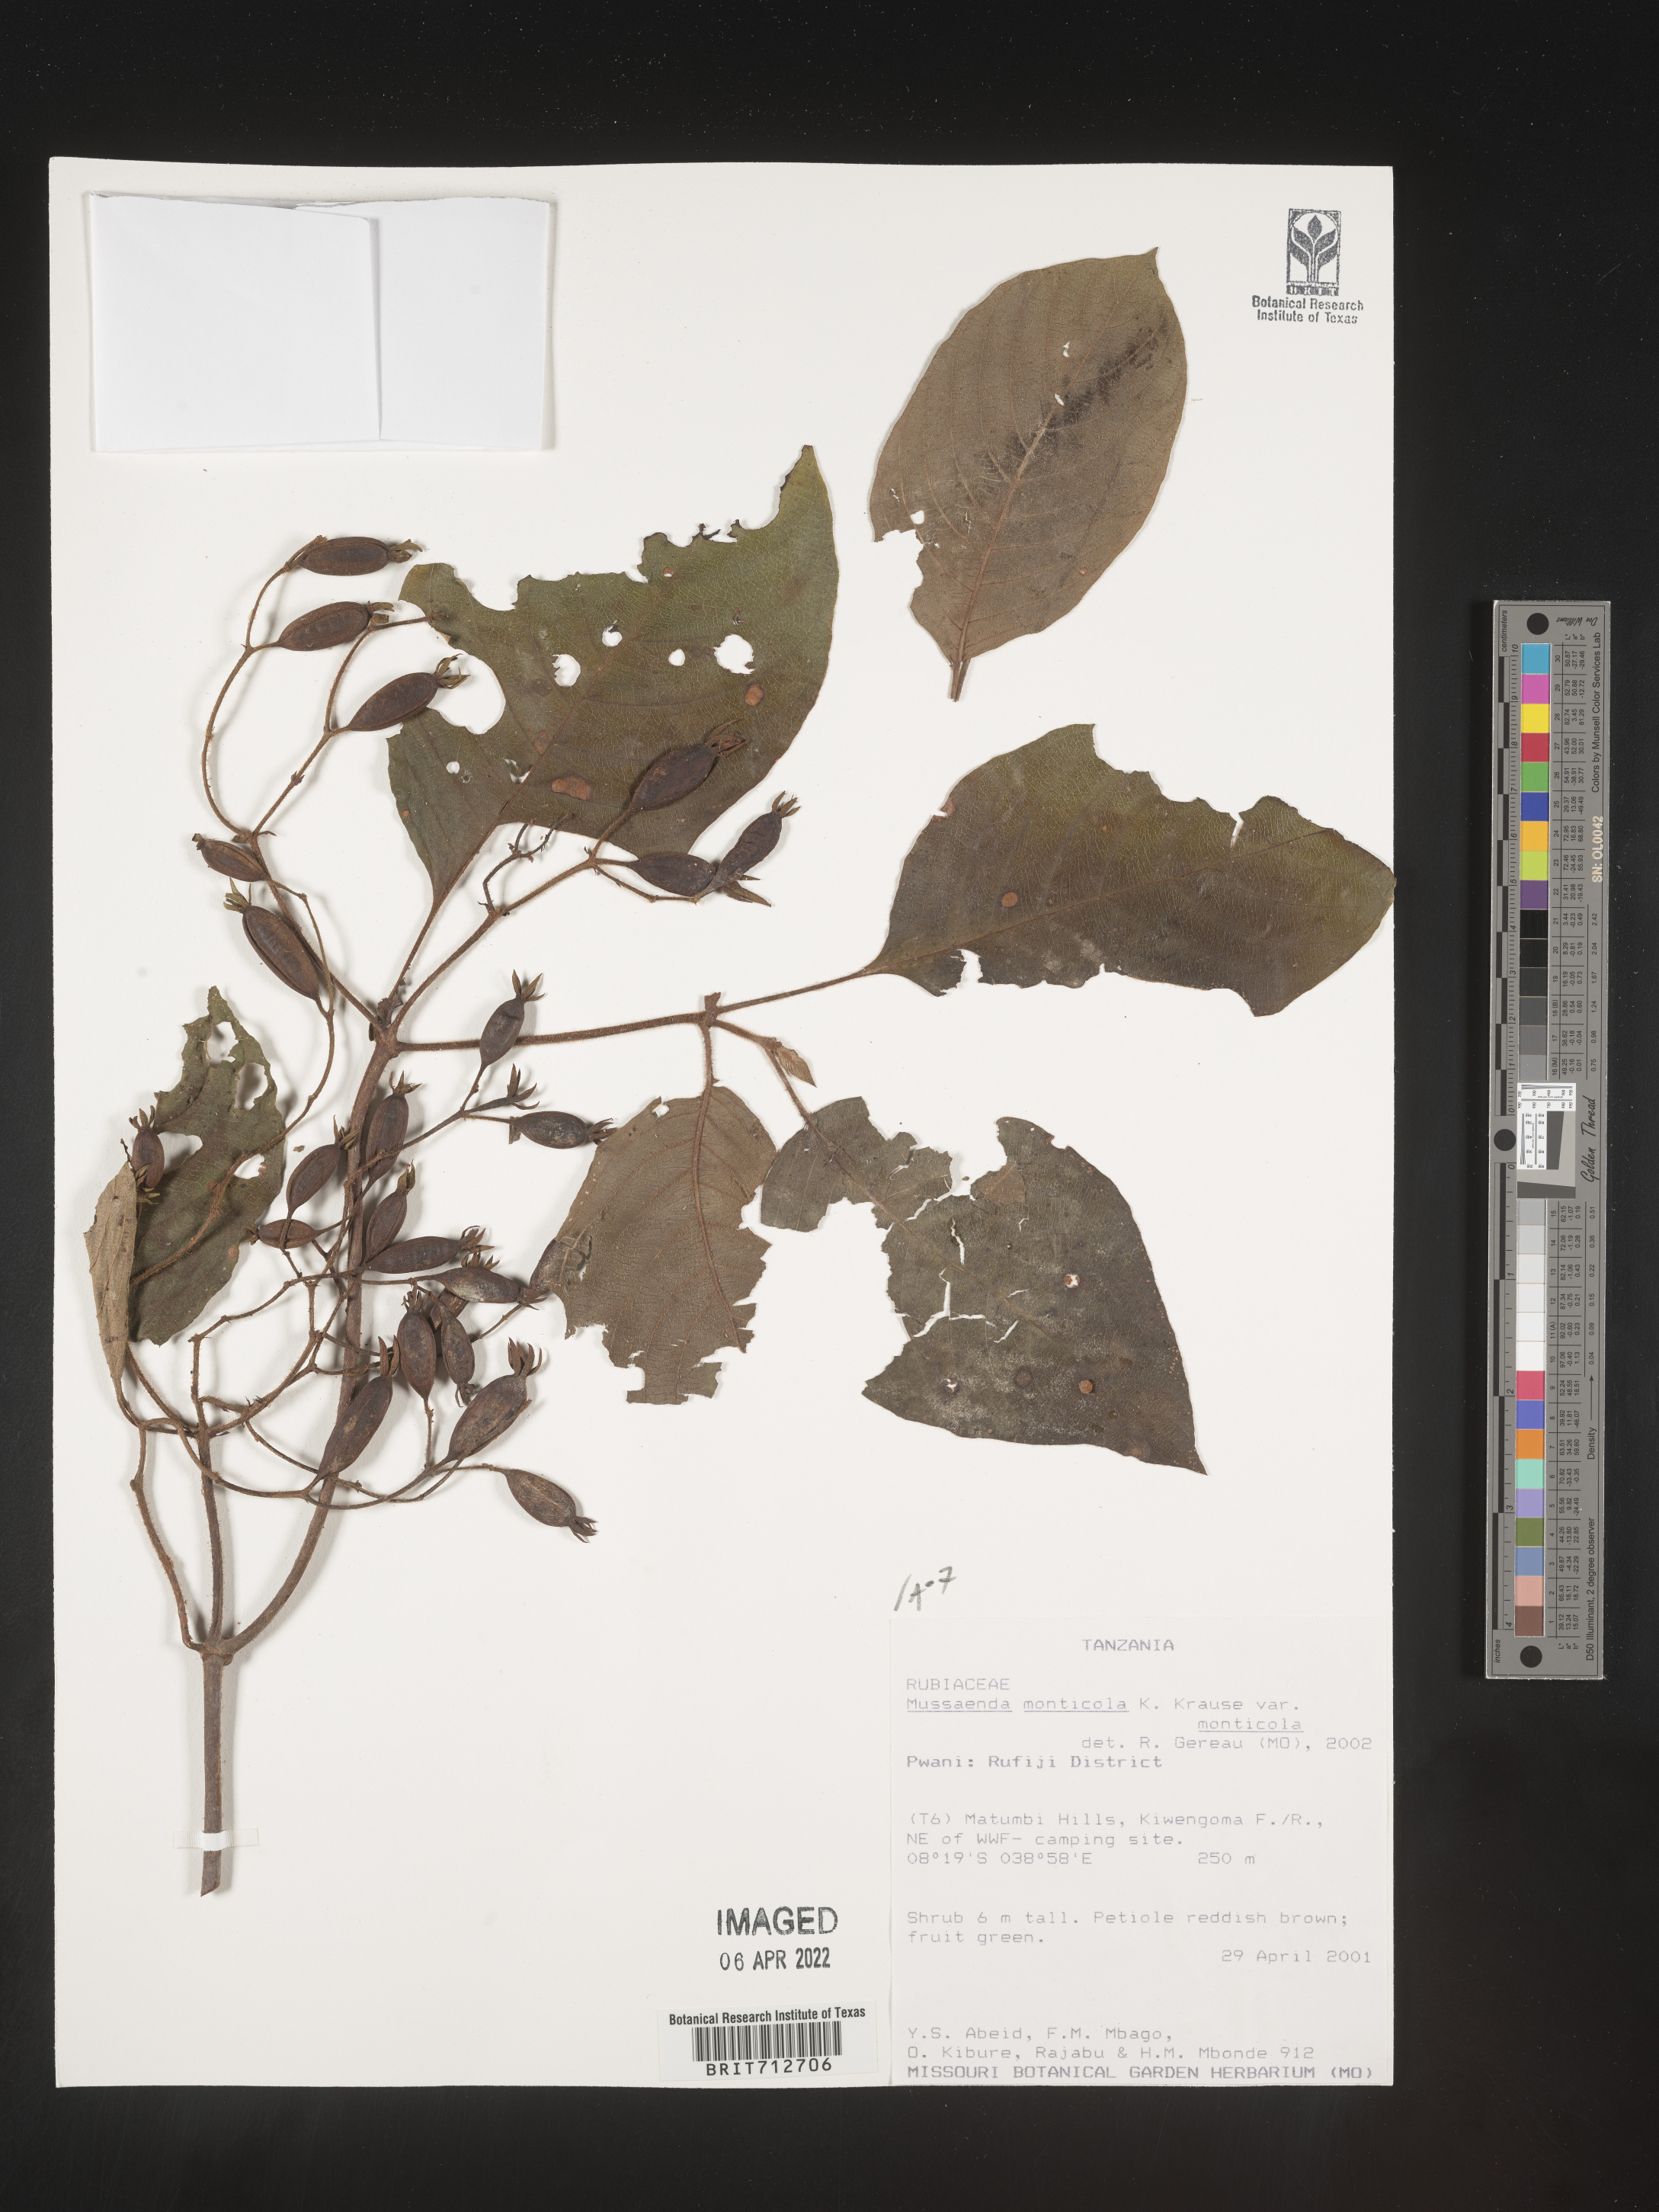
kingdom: Plantae
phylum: Tracheophyta
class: Magnoliopsida
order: Gentianales
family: Rubiaceae
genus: Mussaenda
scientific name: Mussaenda
